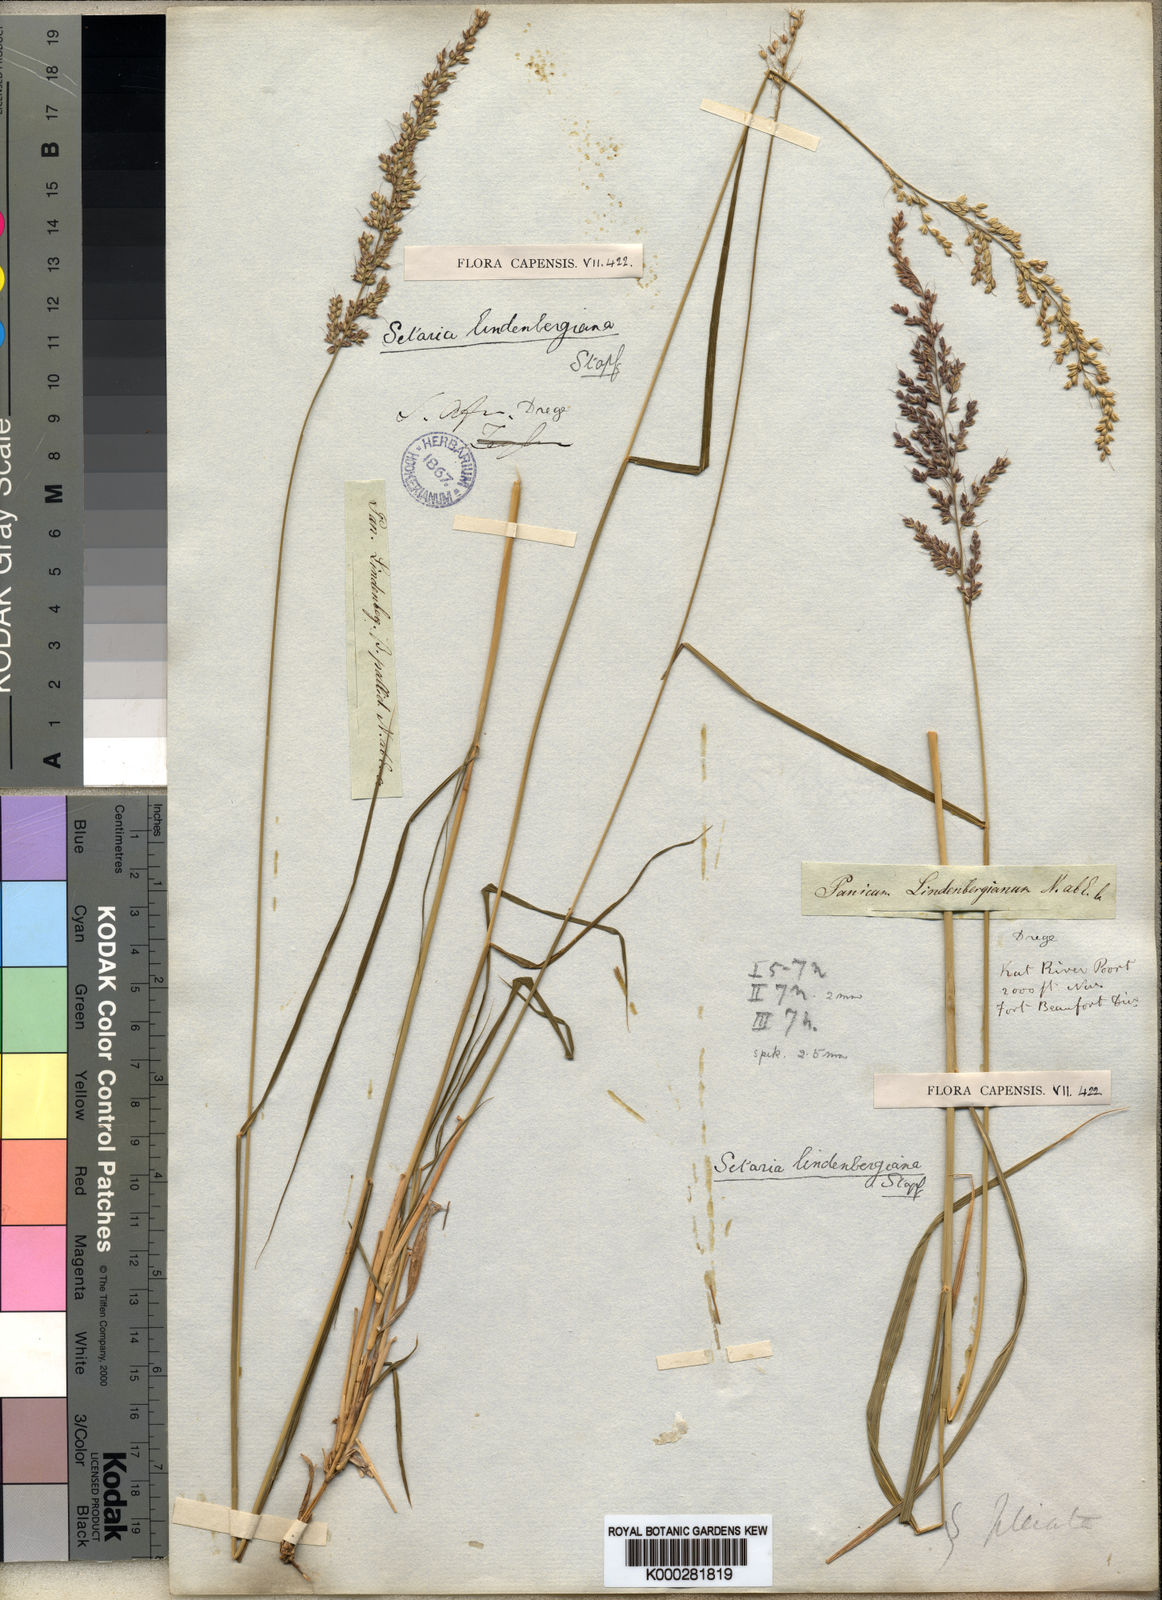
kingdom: Plantae
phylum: Tracheophyta
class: Liliopsida
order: Poales
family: Poaceae
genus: Setaria
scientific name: Setaria lindenbergiana
